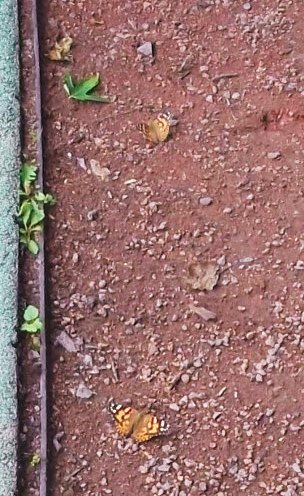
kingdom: Animalia
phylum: Arthropoda
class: Insecta
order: Lepidoptera
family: Nymphalidae
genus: Vanessa
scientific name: Vanessa cardui
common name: Painted Lady
